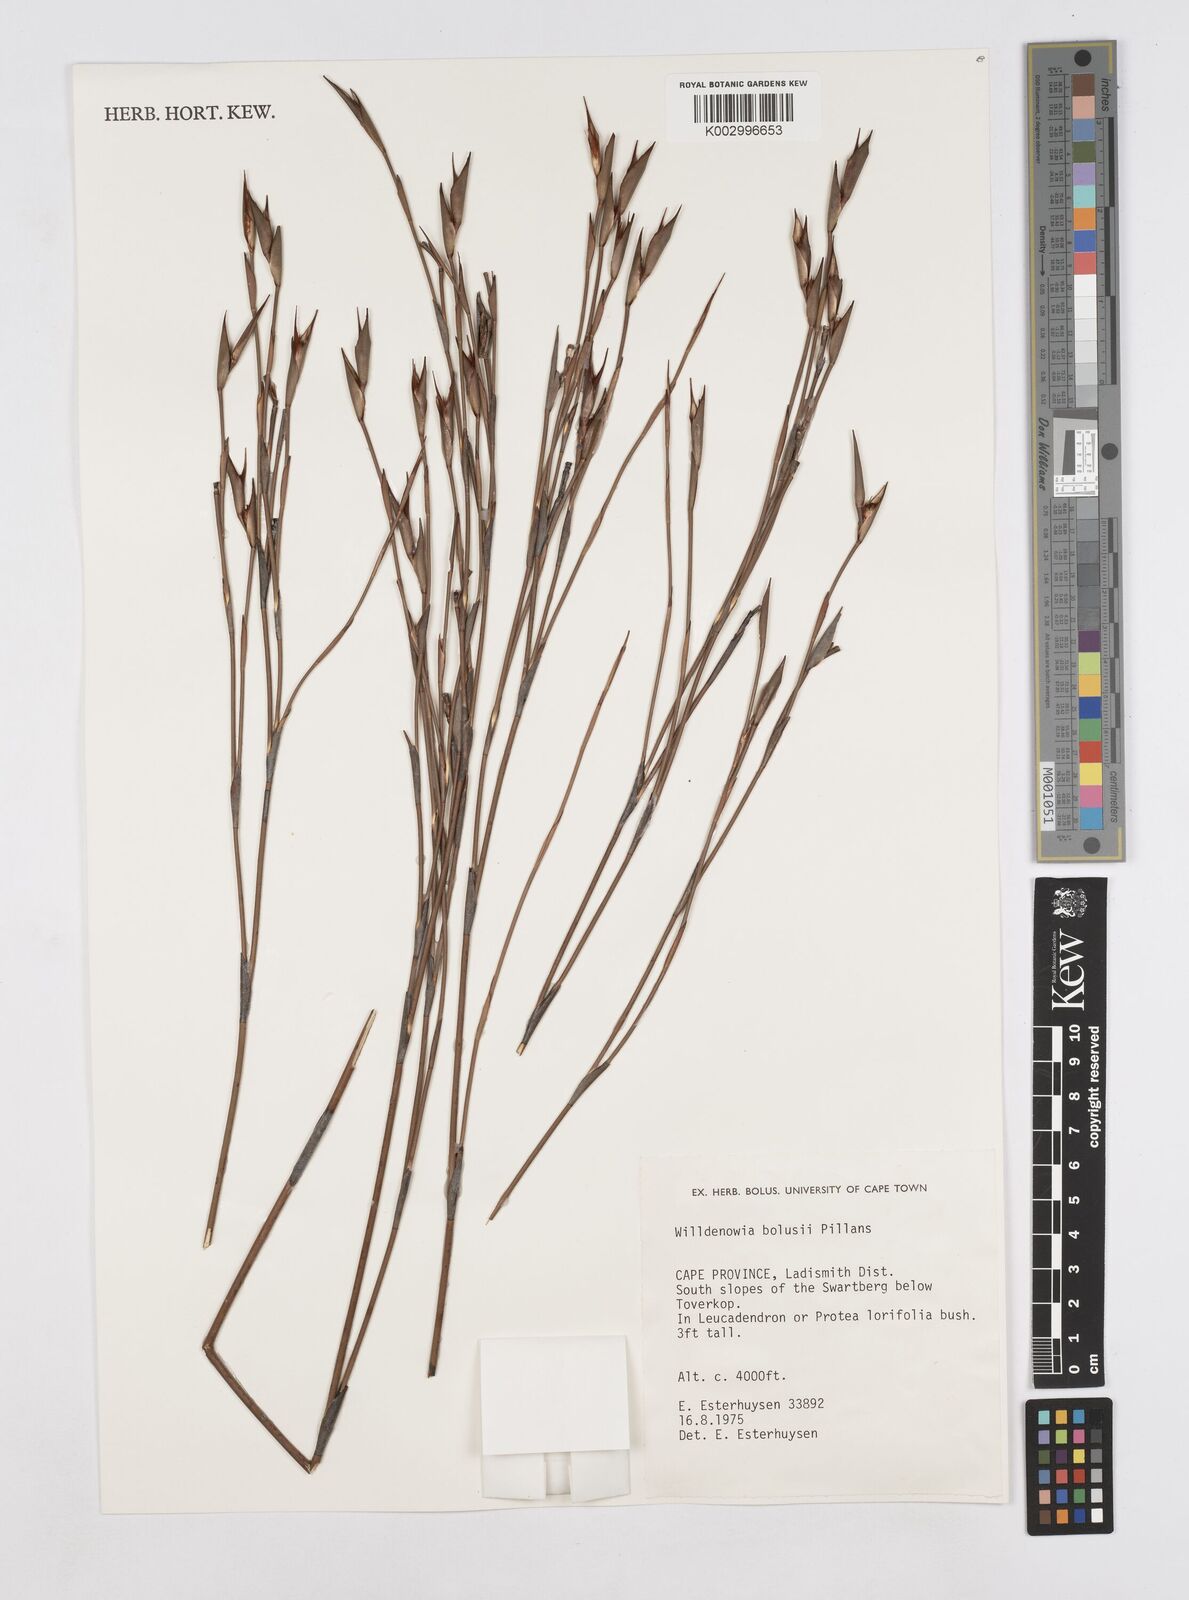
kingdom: Plantae
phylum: Tracheophyta
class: Liliopsida
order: Poales
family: Restionaceae
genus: Willdenowia
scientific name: Willdenowia bolusii
